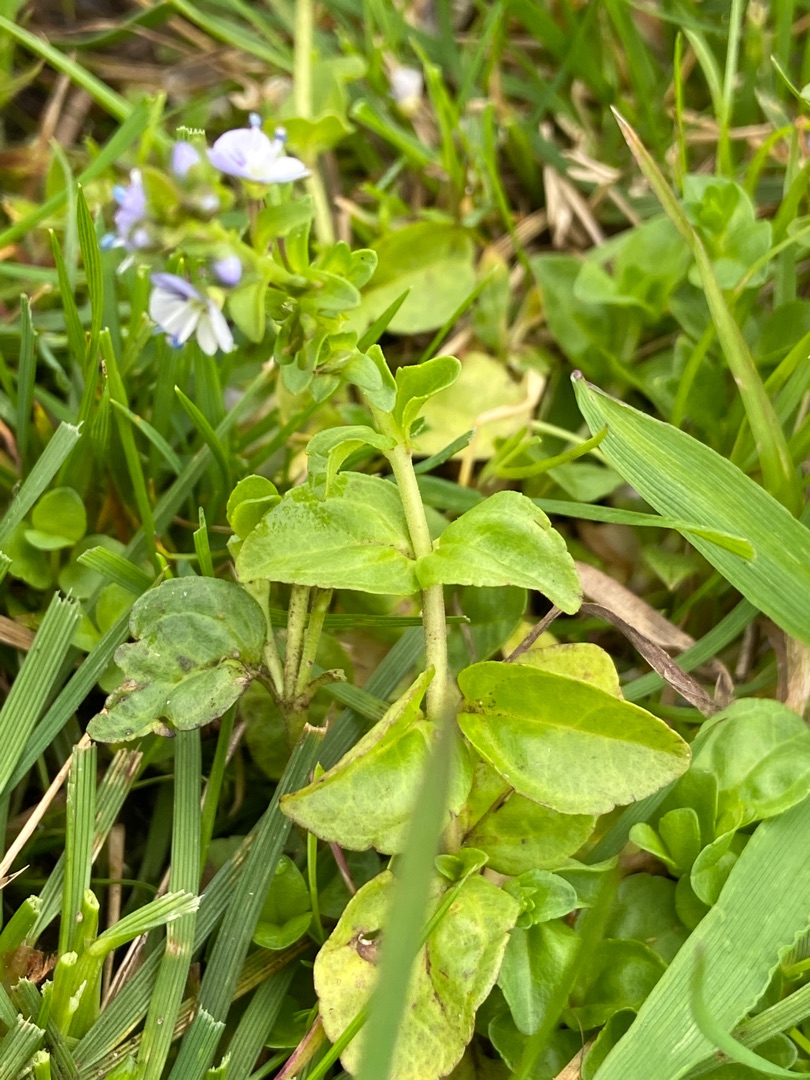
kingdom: Plantae
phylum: Tracheophyta
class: Magnoliopsida
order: Lamiales
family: Plantaginaceae
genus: Veronica
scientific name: Veronica serpyllifolia
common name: Glat ærenpris
